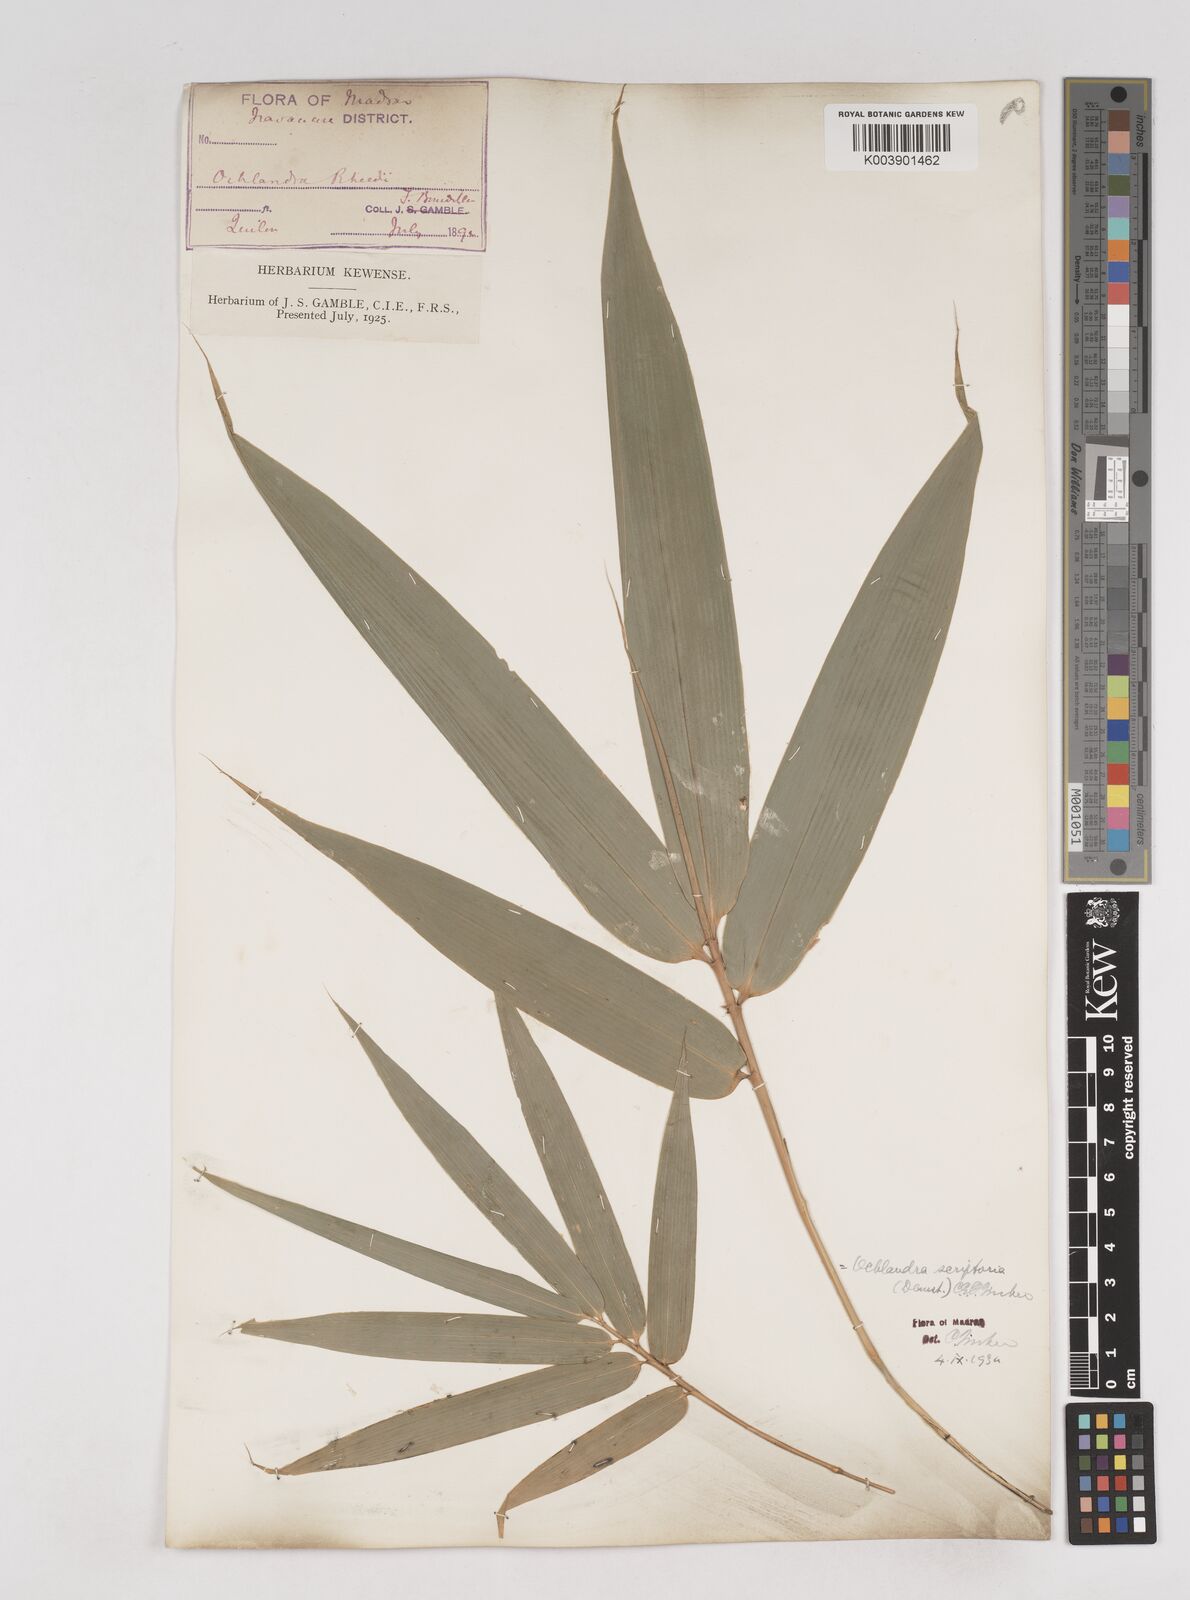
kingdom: Plantae
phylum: Tracheophyta
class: Liliopsida
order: Poales
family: Poaceae
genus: Ochlandra
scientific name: Ochlandra scriptoria
